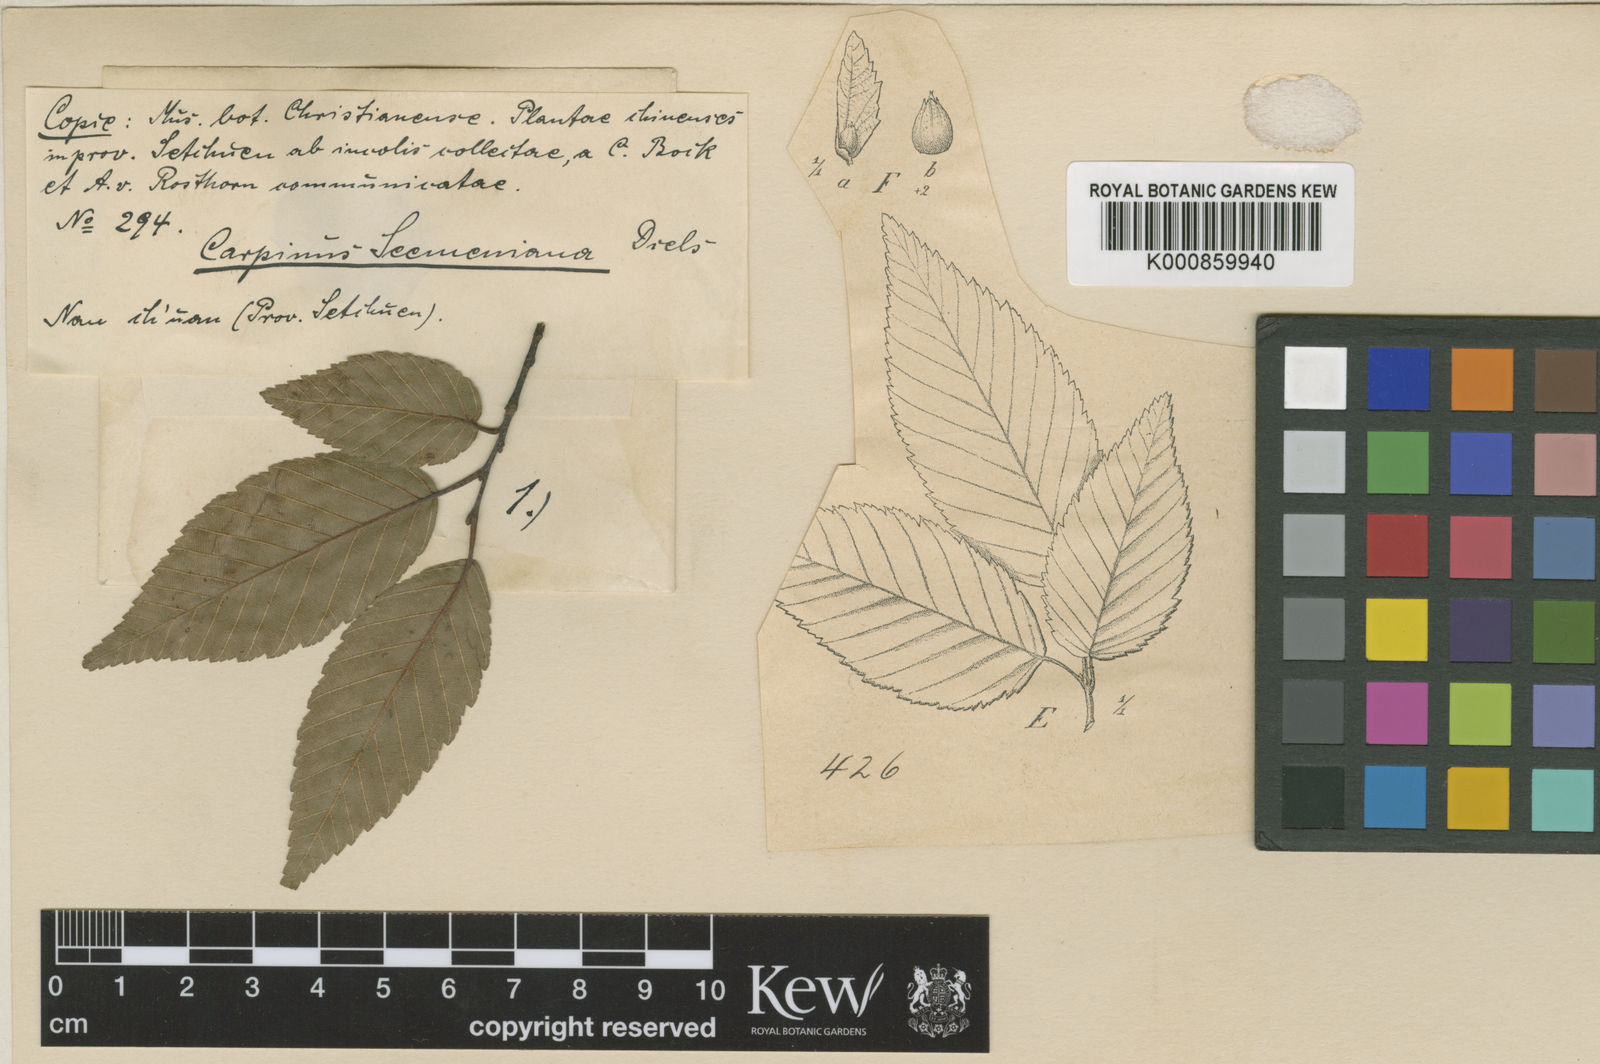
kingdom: Plantae
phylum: Tracheophyta
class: Magnoliopsida
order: Fagales
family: Betulaceae
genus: Carpinus
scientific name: Carpinus pubescens
